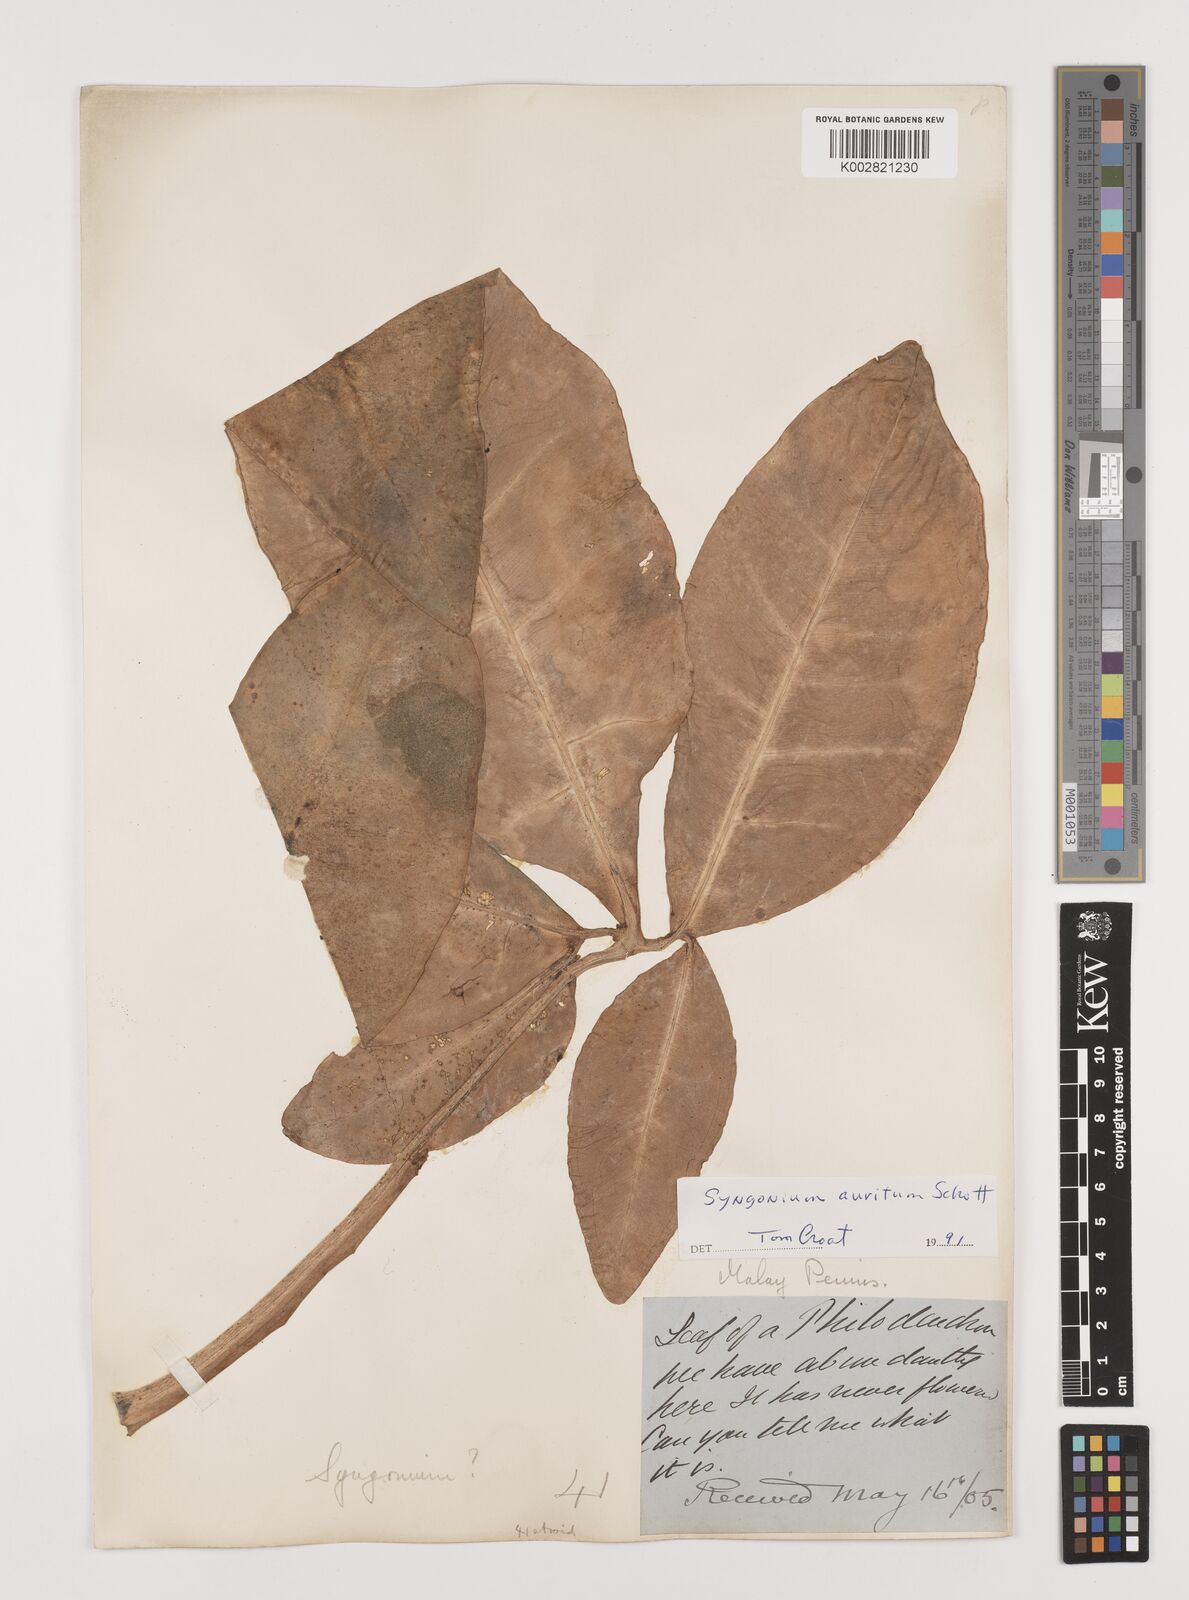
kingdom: Plantae
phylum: Tracheophyta
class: Liliopsida
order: Alismatales
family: Araceae
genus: Syngonium
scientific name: Syngonium auritum
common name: Five-fingers
